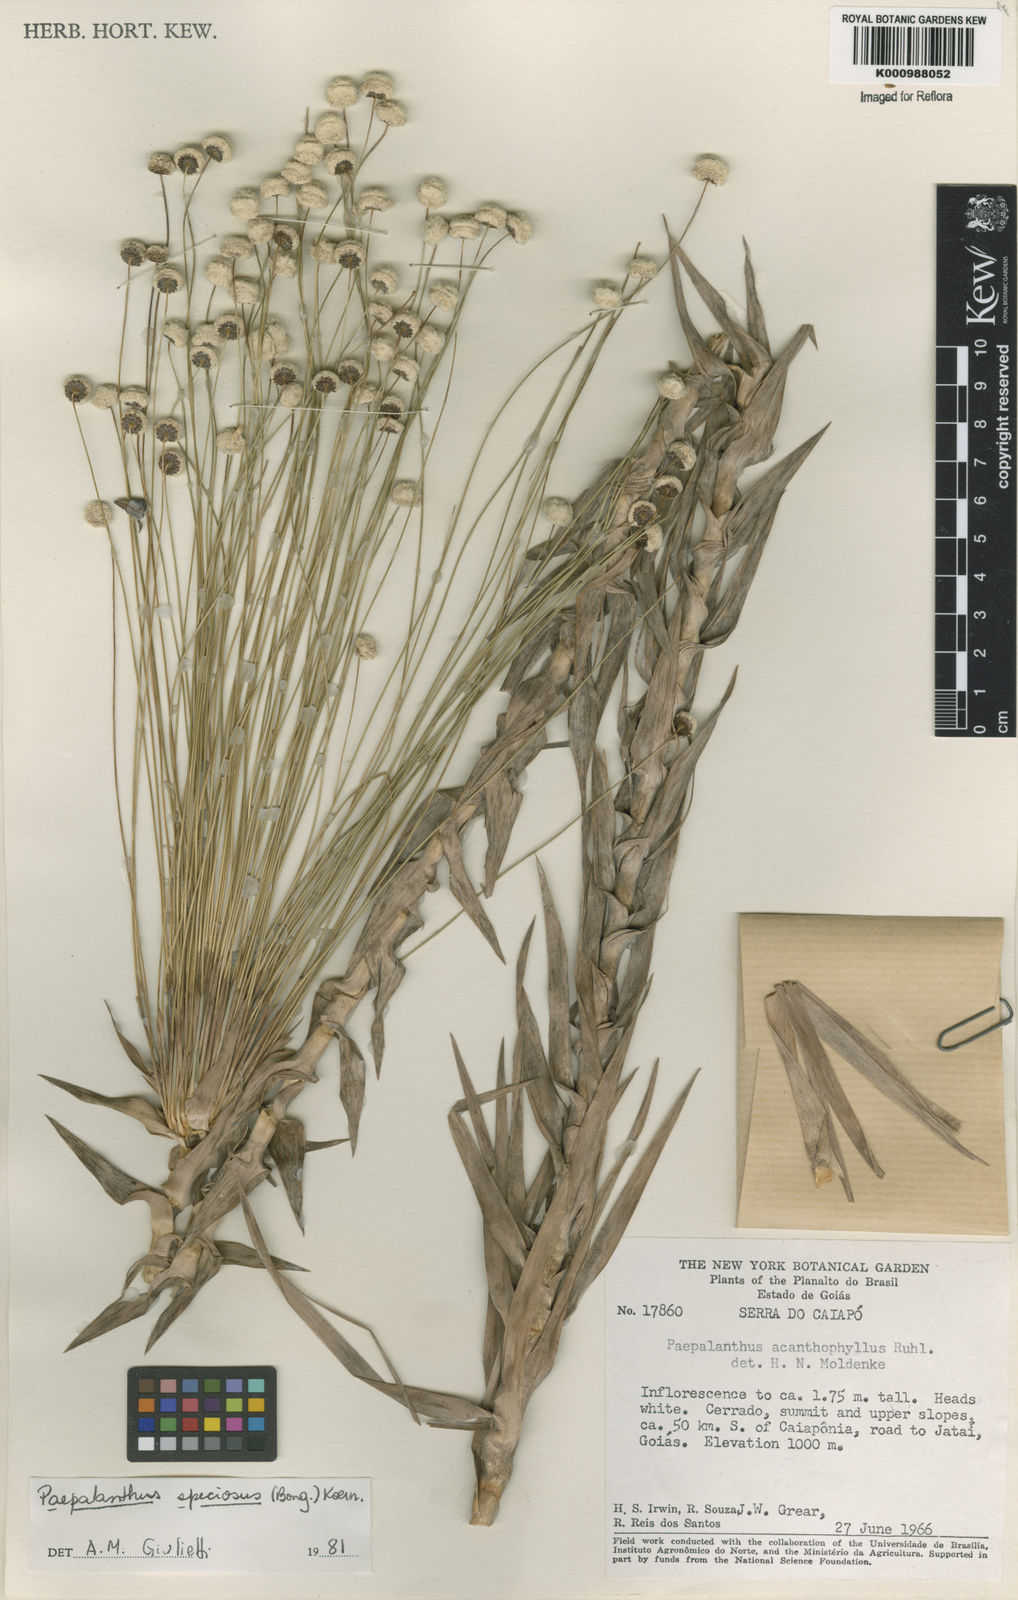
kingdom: Plantae
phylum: Tracheophyta
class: Liliopsida
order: Poales
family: Eriocaulaceae
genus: Paepalanthus
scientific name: Paepalanthus
